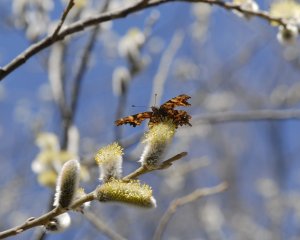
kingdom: Animalia
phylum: Arthropoda
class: Insecta
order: Lepidoptera
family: Nymphalidae
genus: Polygonia
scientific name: Polygonia comma
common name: Eastern Comma
